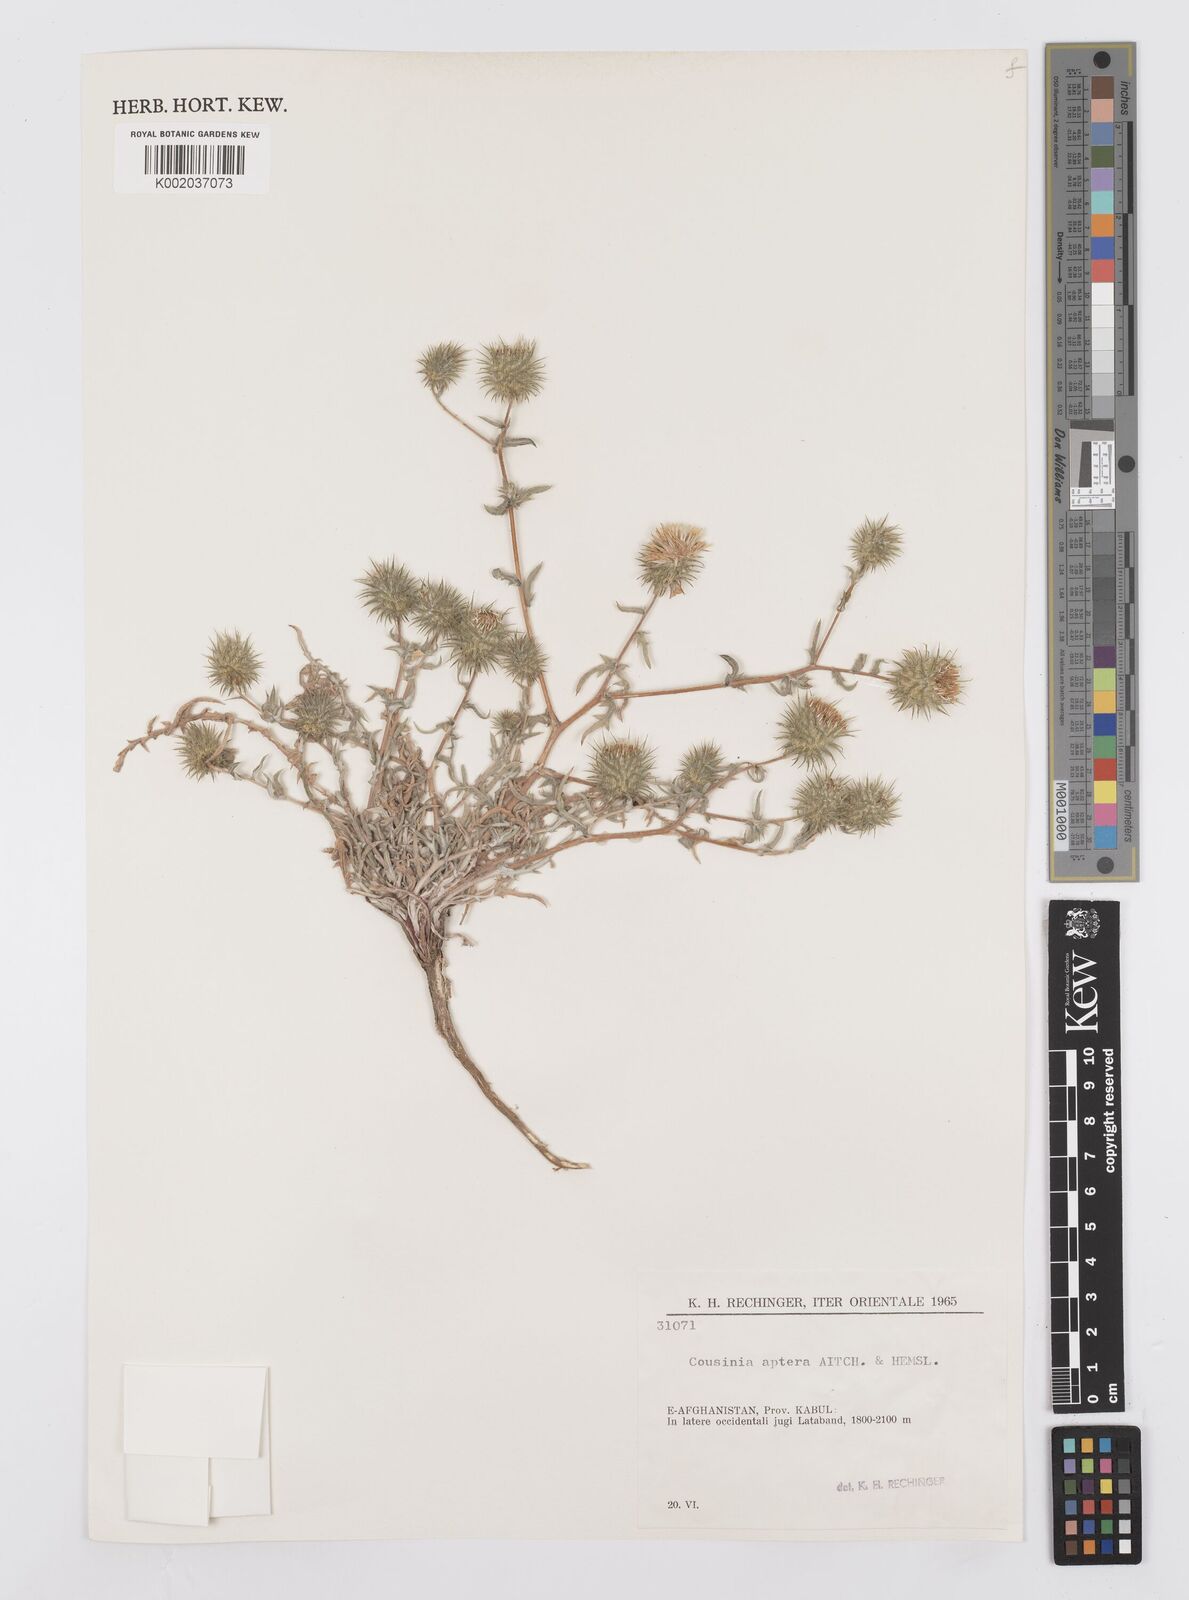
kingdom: Plantae
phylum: Tracheophyta
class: Magnoliopsida
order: Asterales
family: Asteraceae
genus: Cousinia
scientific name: Cousinia aptera
